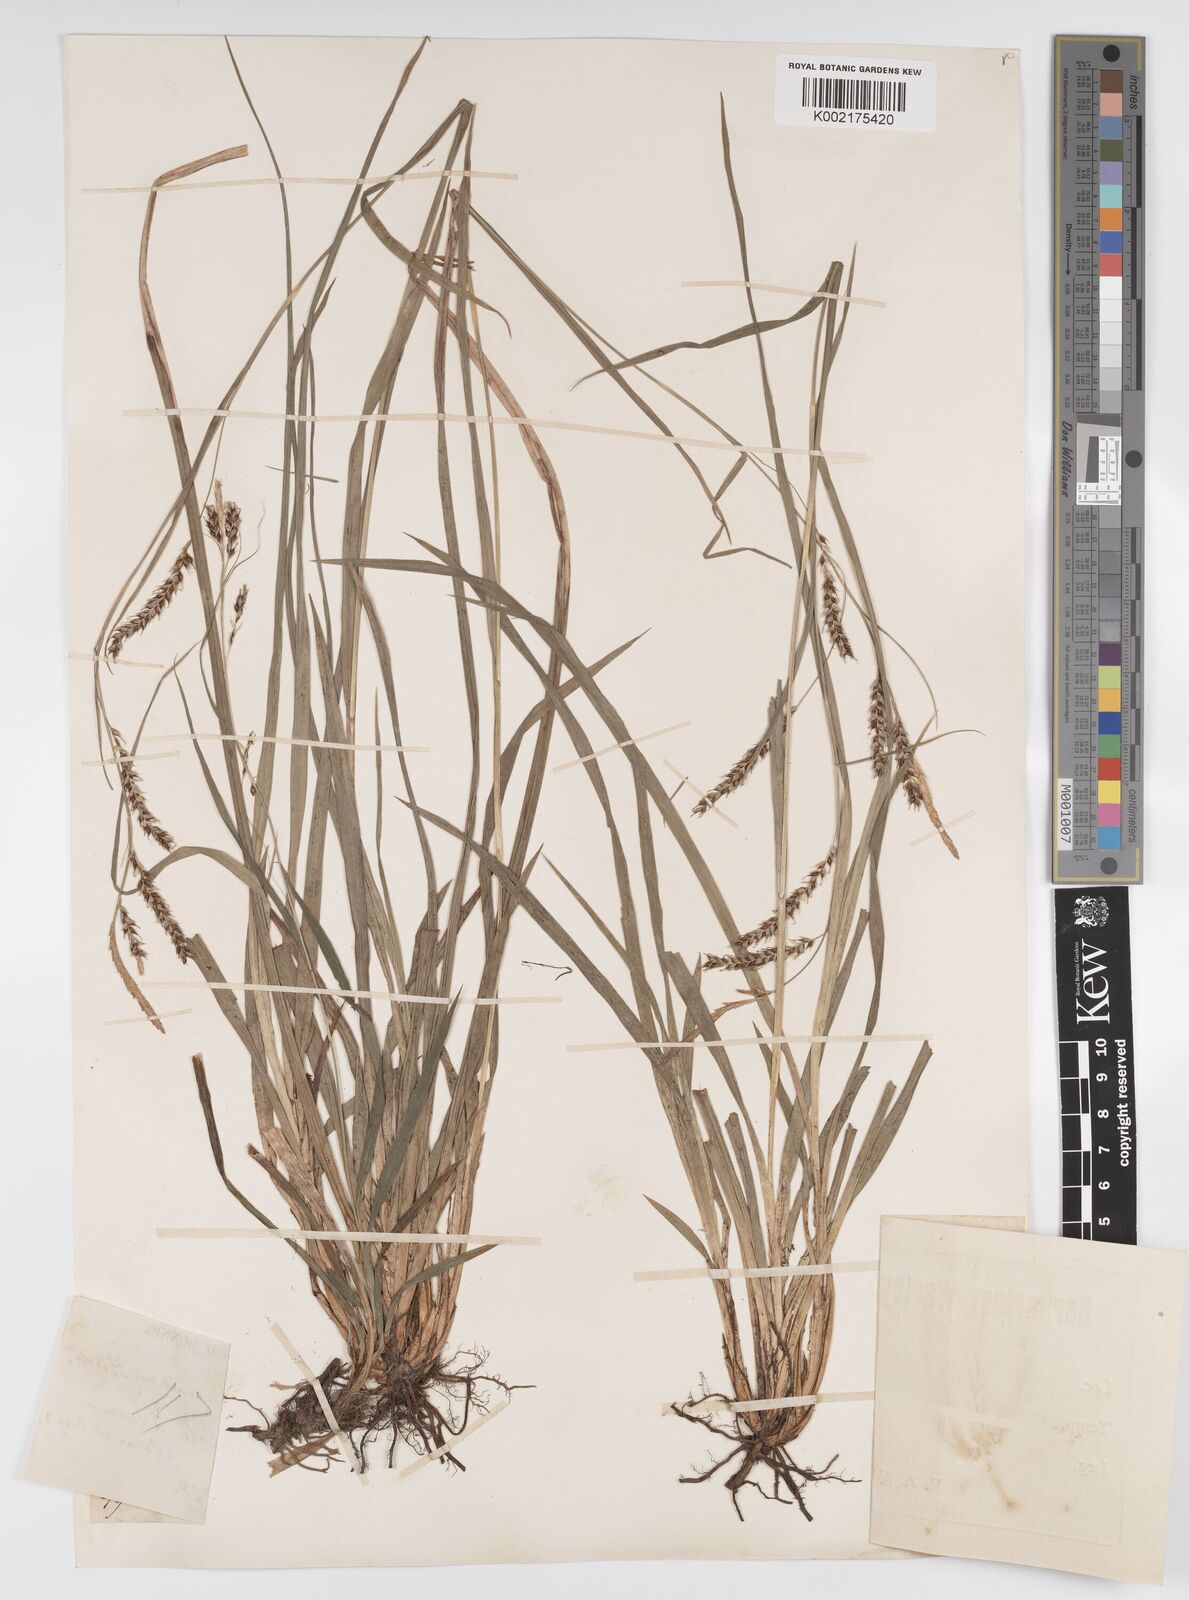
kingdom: Plantae
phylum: Tracheophyta
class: Liliopsida
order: Poales
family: Cyperaceae
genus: Carex
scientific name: Carex sylvatica
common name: Wood-sedge
